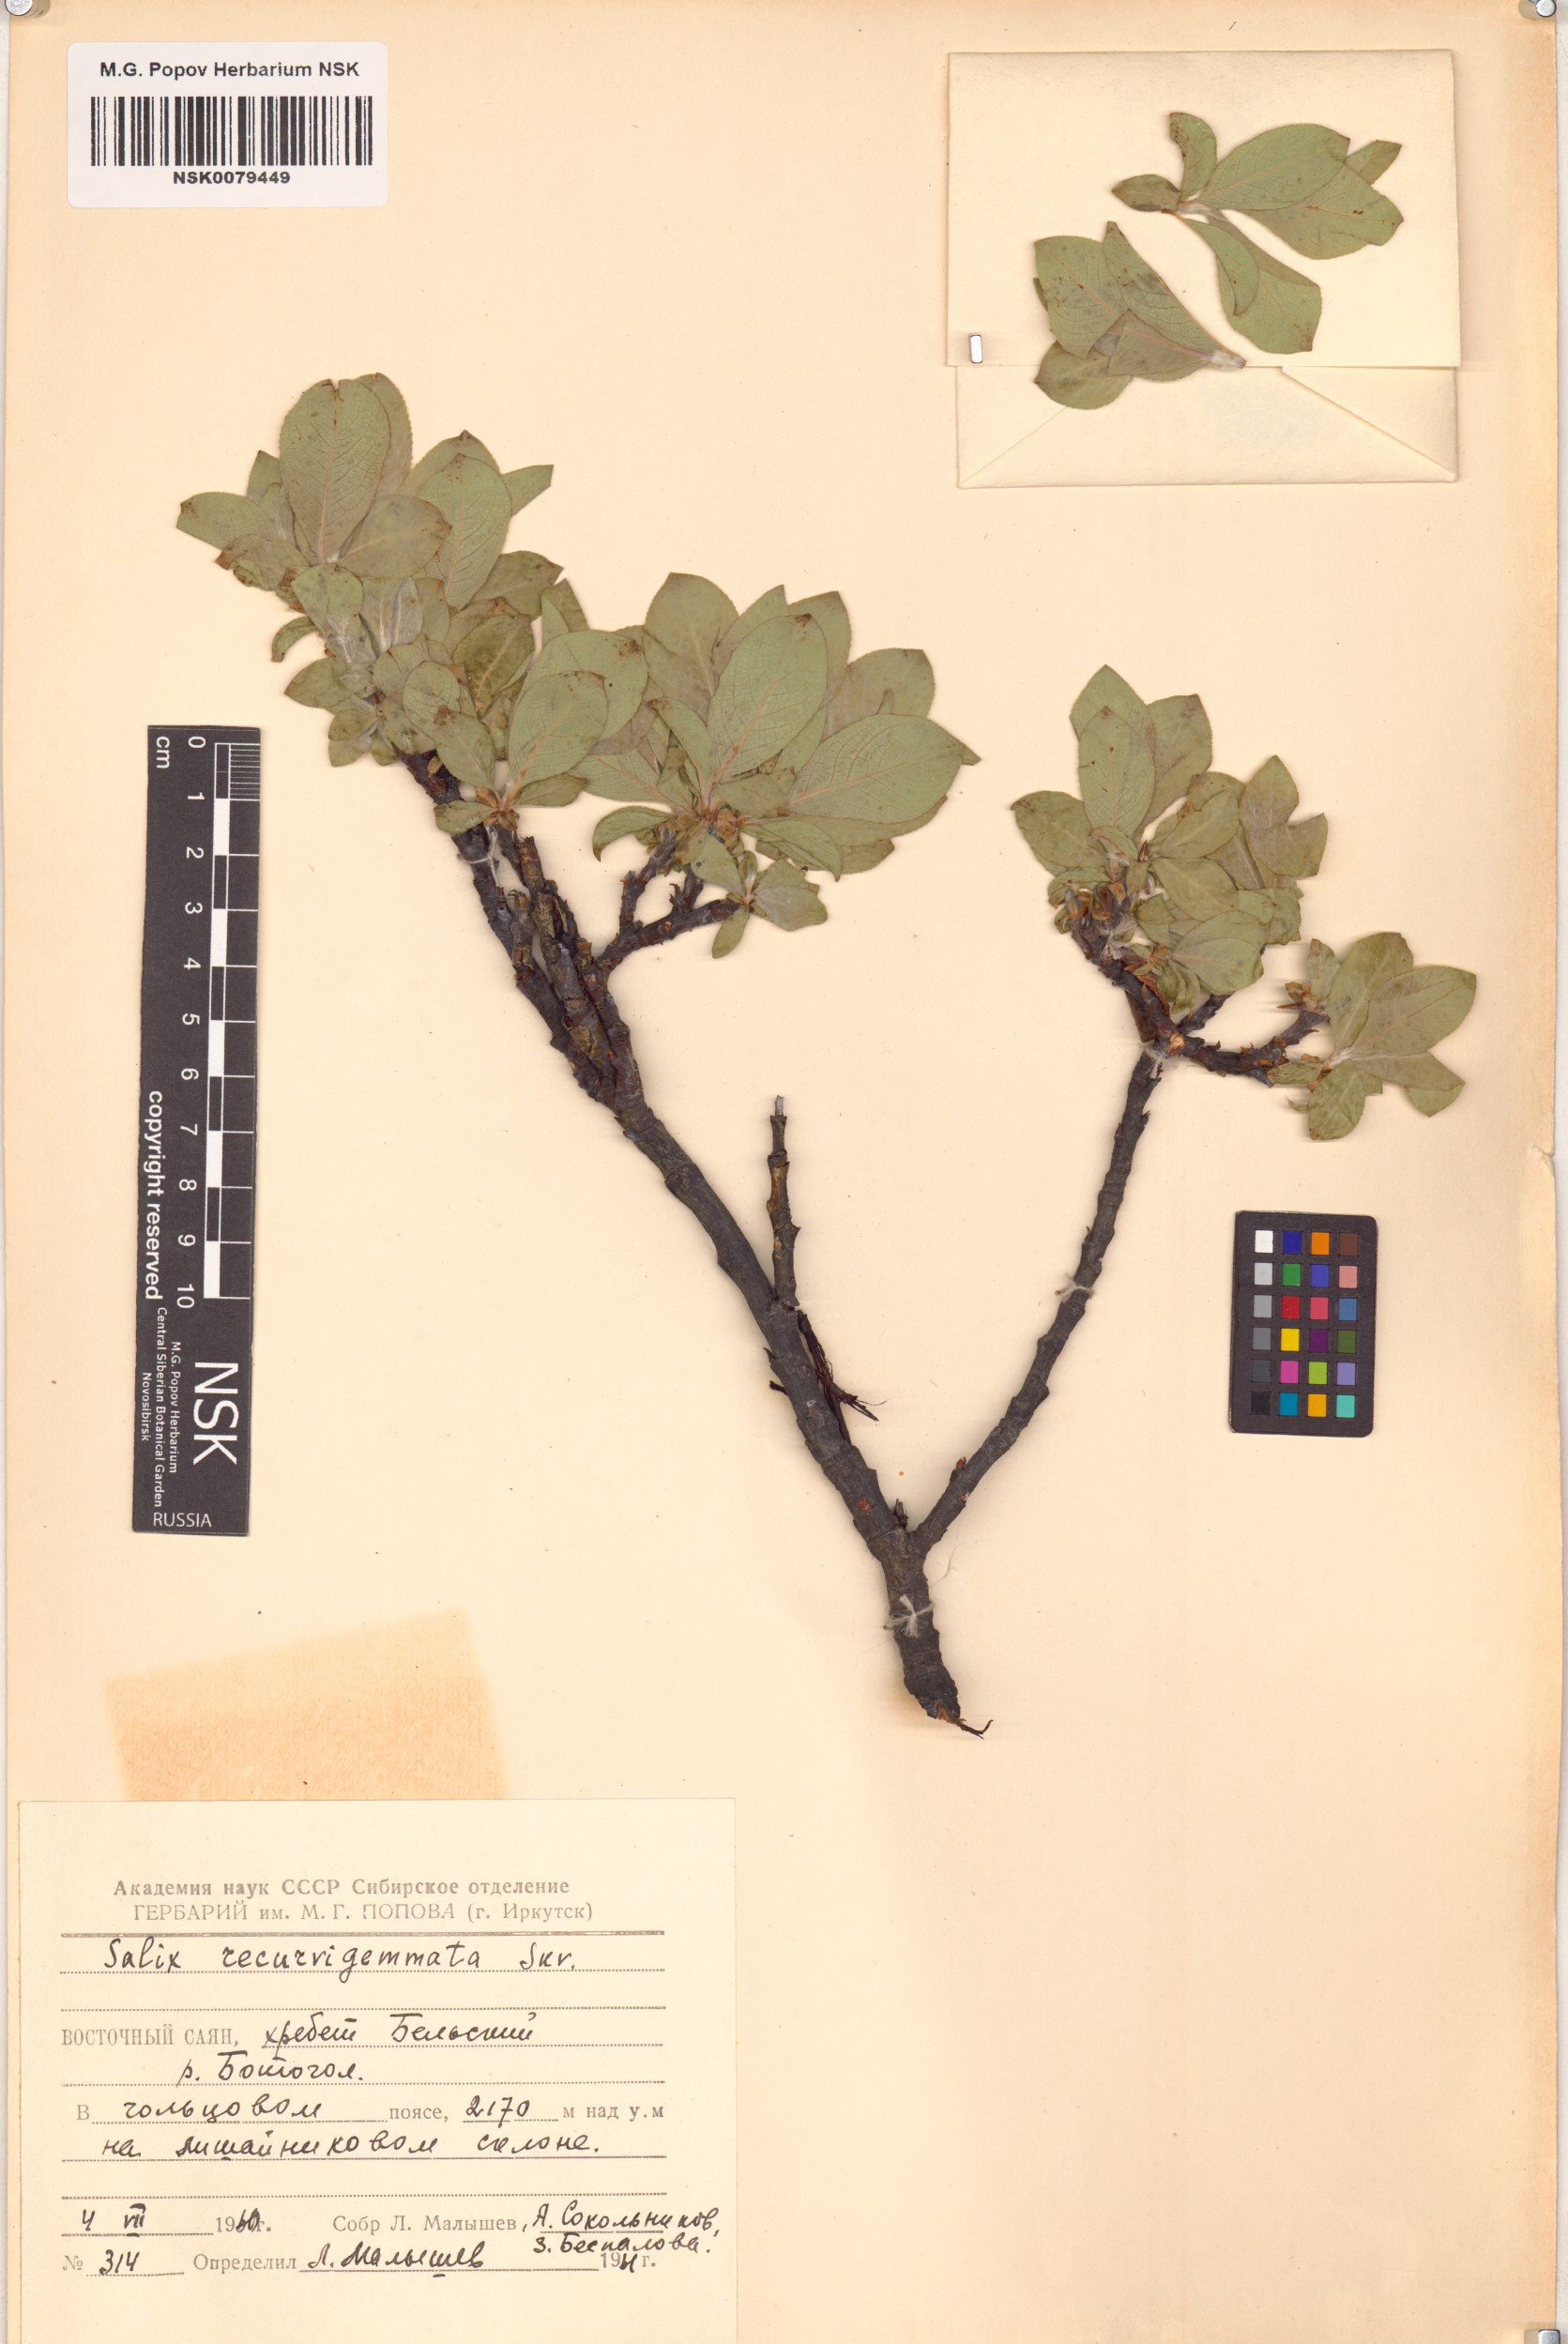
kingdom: Plantae
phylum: Tracheophyta
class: Magnoliopsida
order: Malpighiales
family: Salicaceae
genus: Salix
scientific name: Salix recurvigemmata
